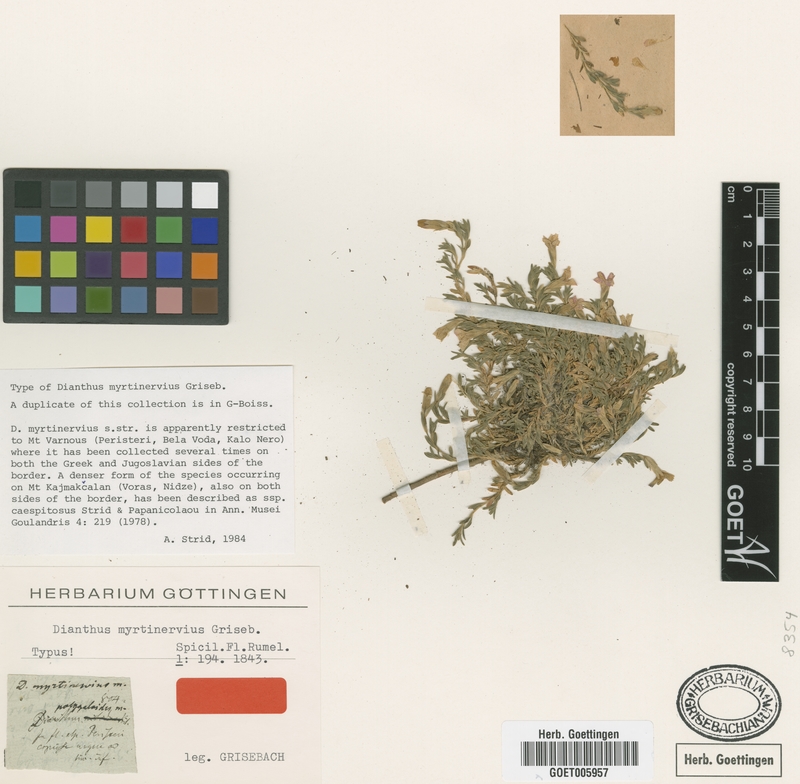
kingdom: Plantae
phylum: Tracheophyta
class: Magnoliopsida
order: Caryophyllales
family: Caryophyllaceae
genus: Dianthus
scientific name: Dianthus myrtinervius
